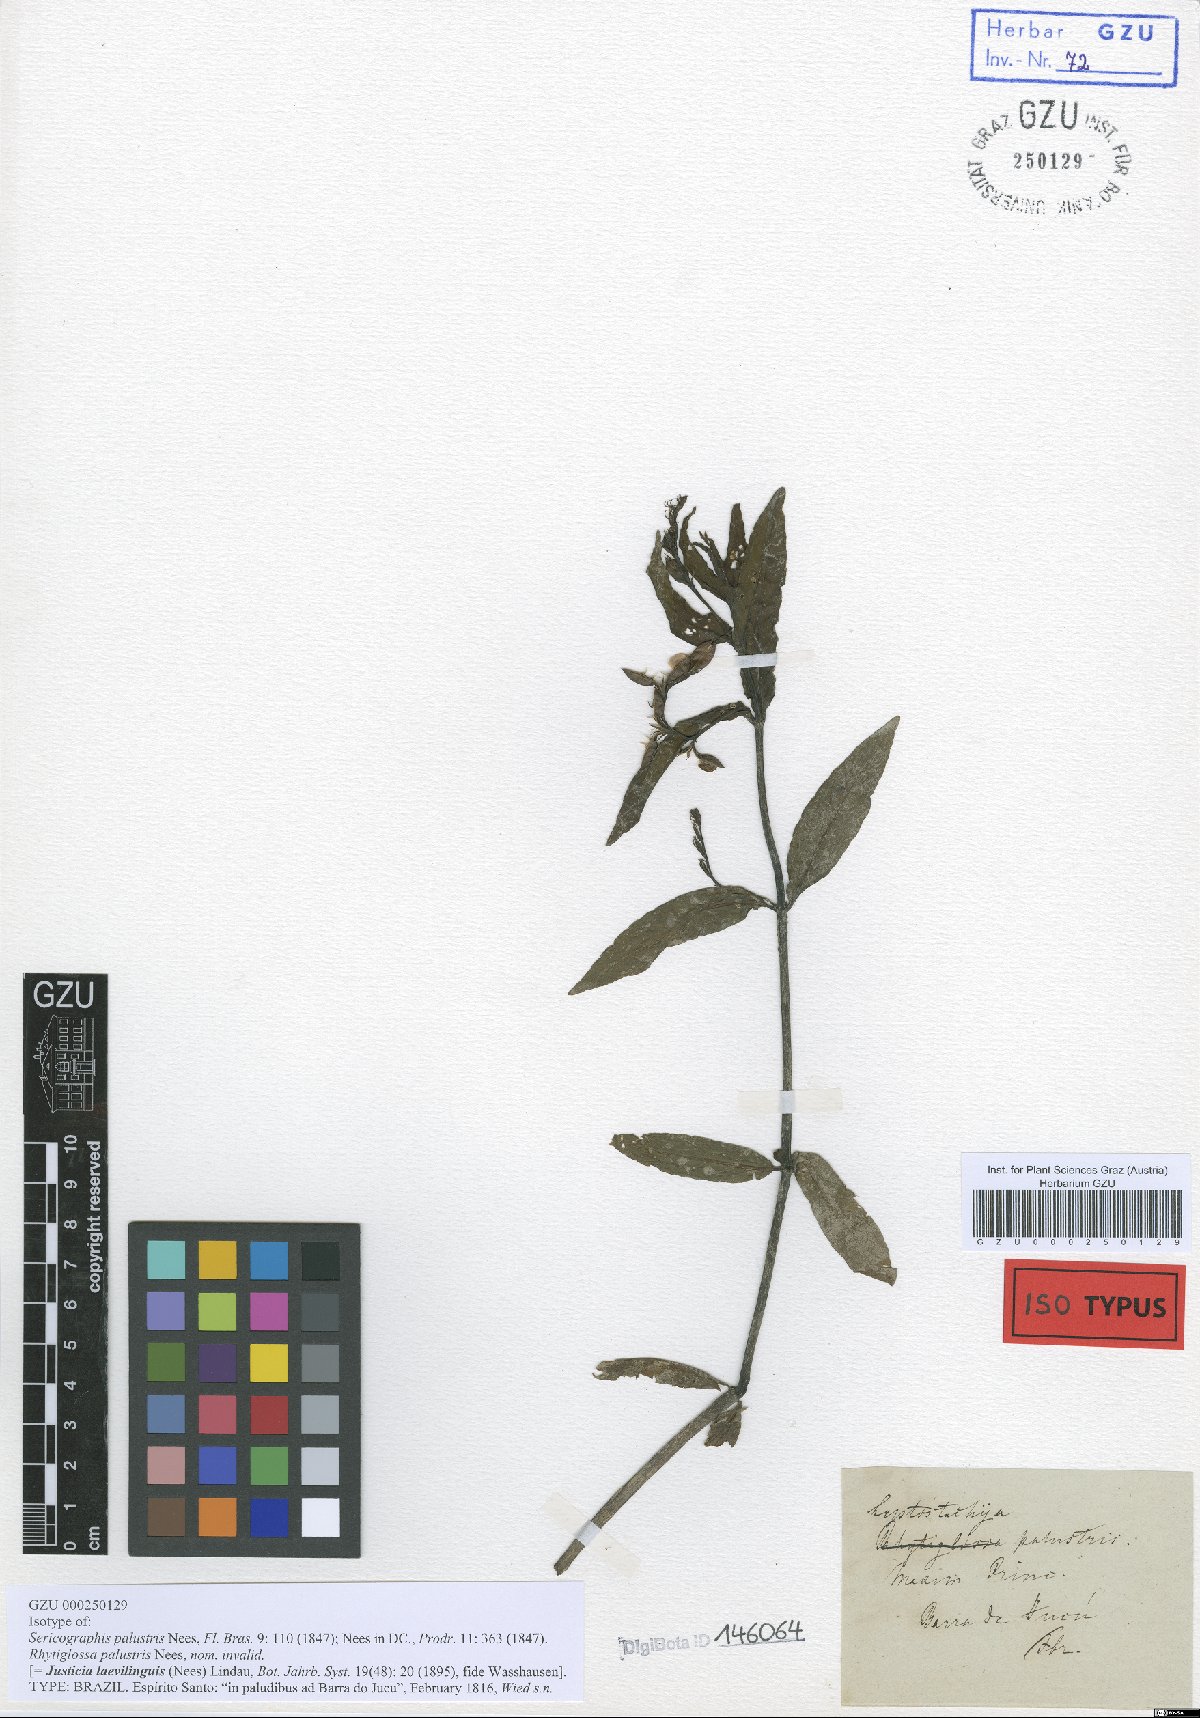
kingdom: Plantae
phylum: Tracheophyta
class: Magnoliopsida
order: Lamiales
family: Acanthaceae
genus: Dianthera
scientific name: Dianthera laevilinguis
